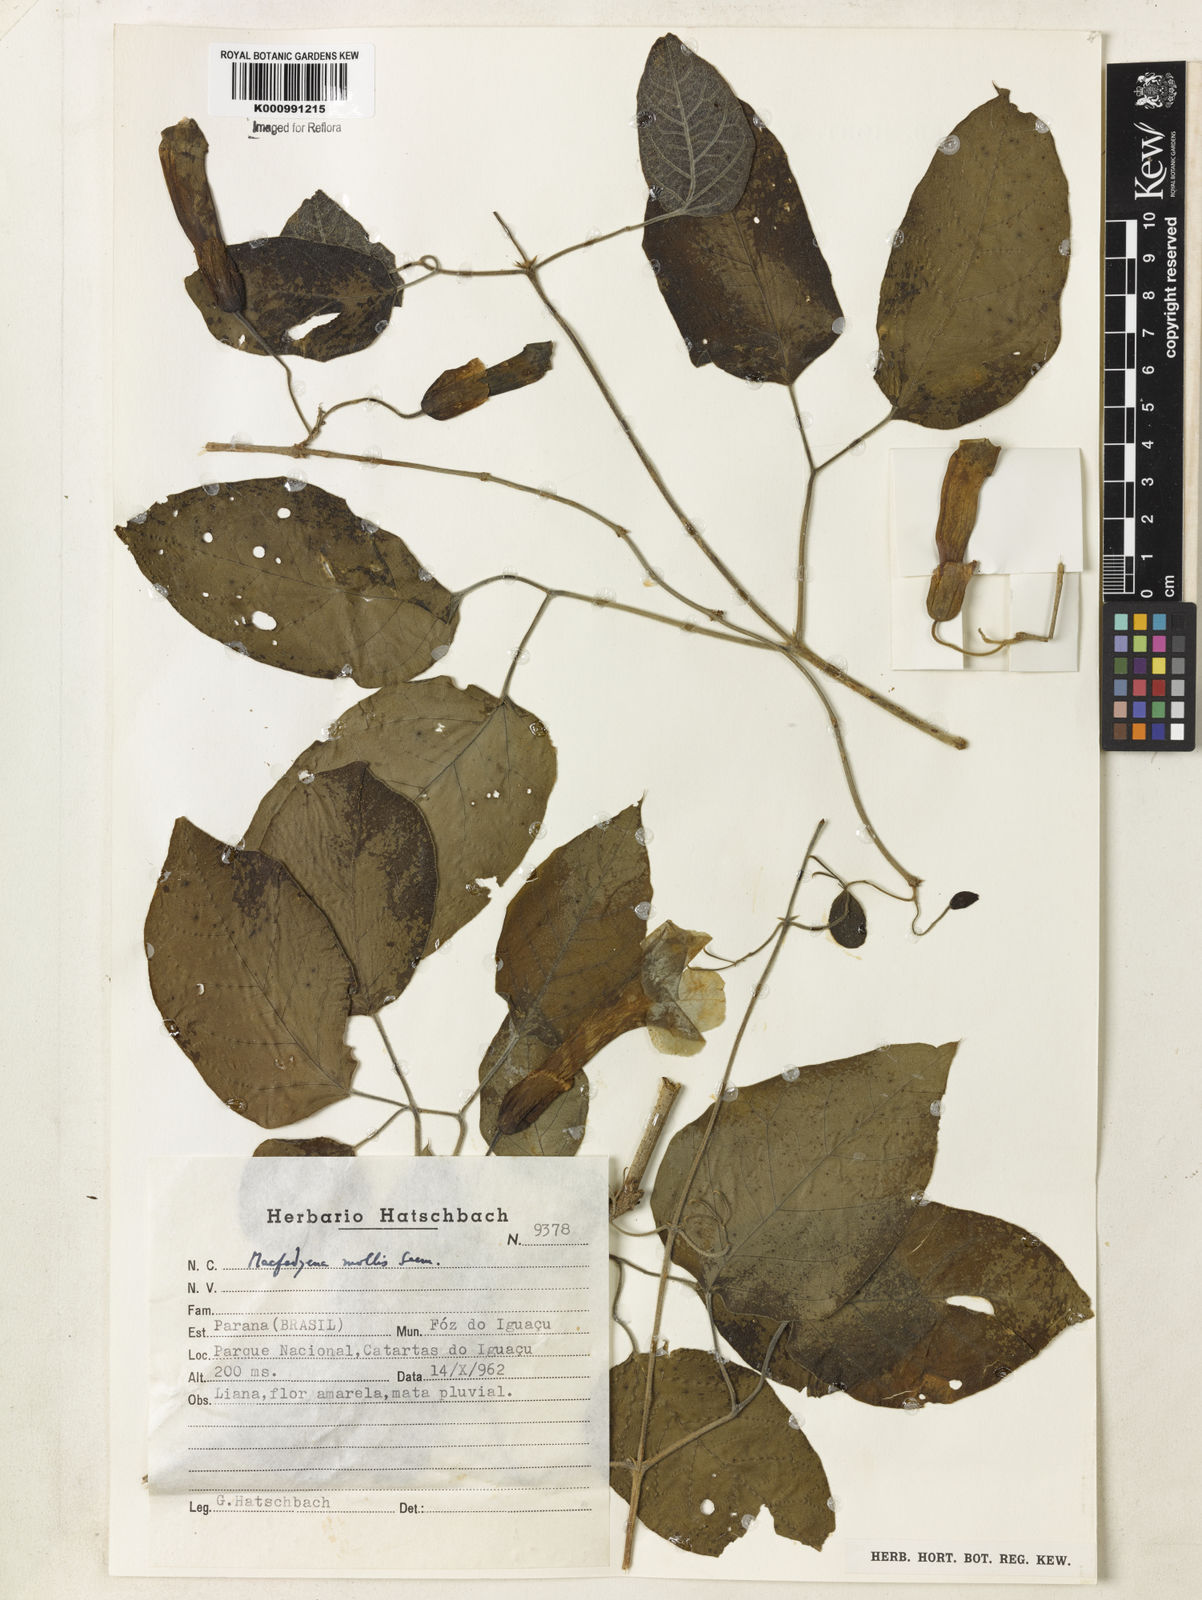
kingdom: Plantae
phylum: Tracheophyta
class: Magnoliopsida
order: Lamiales
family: Bignoniaceae
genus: Dolichandra
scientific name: Dolichandra hispida
